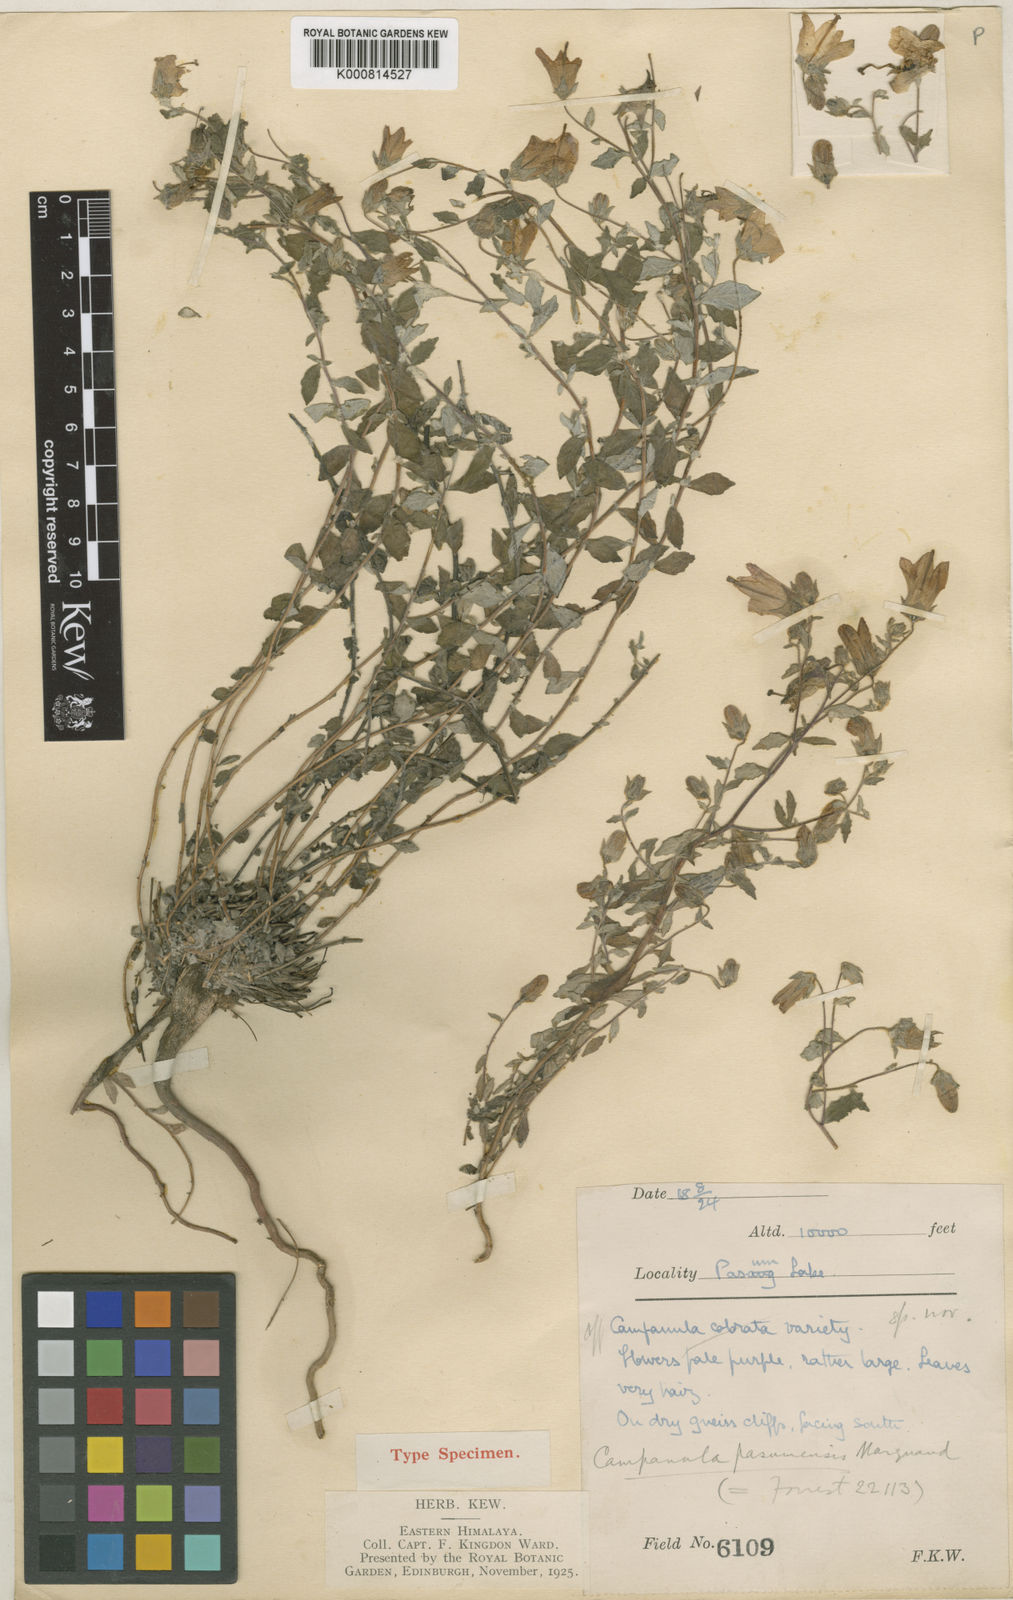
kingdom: Plantae
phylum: Tracheophyta
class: Magnoliopsida
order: Asterales
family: Campanulaceae
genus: Campanula
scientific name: Campanula cana
